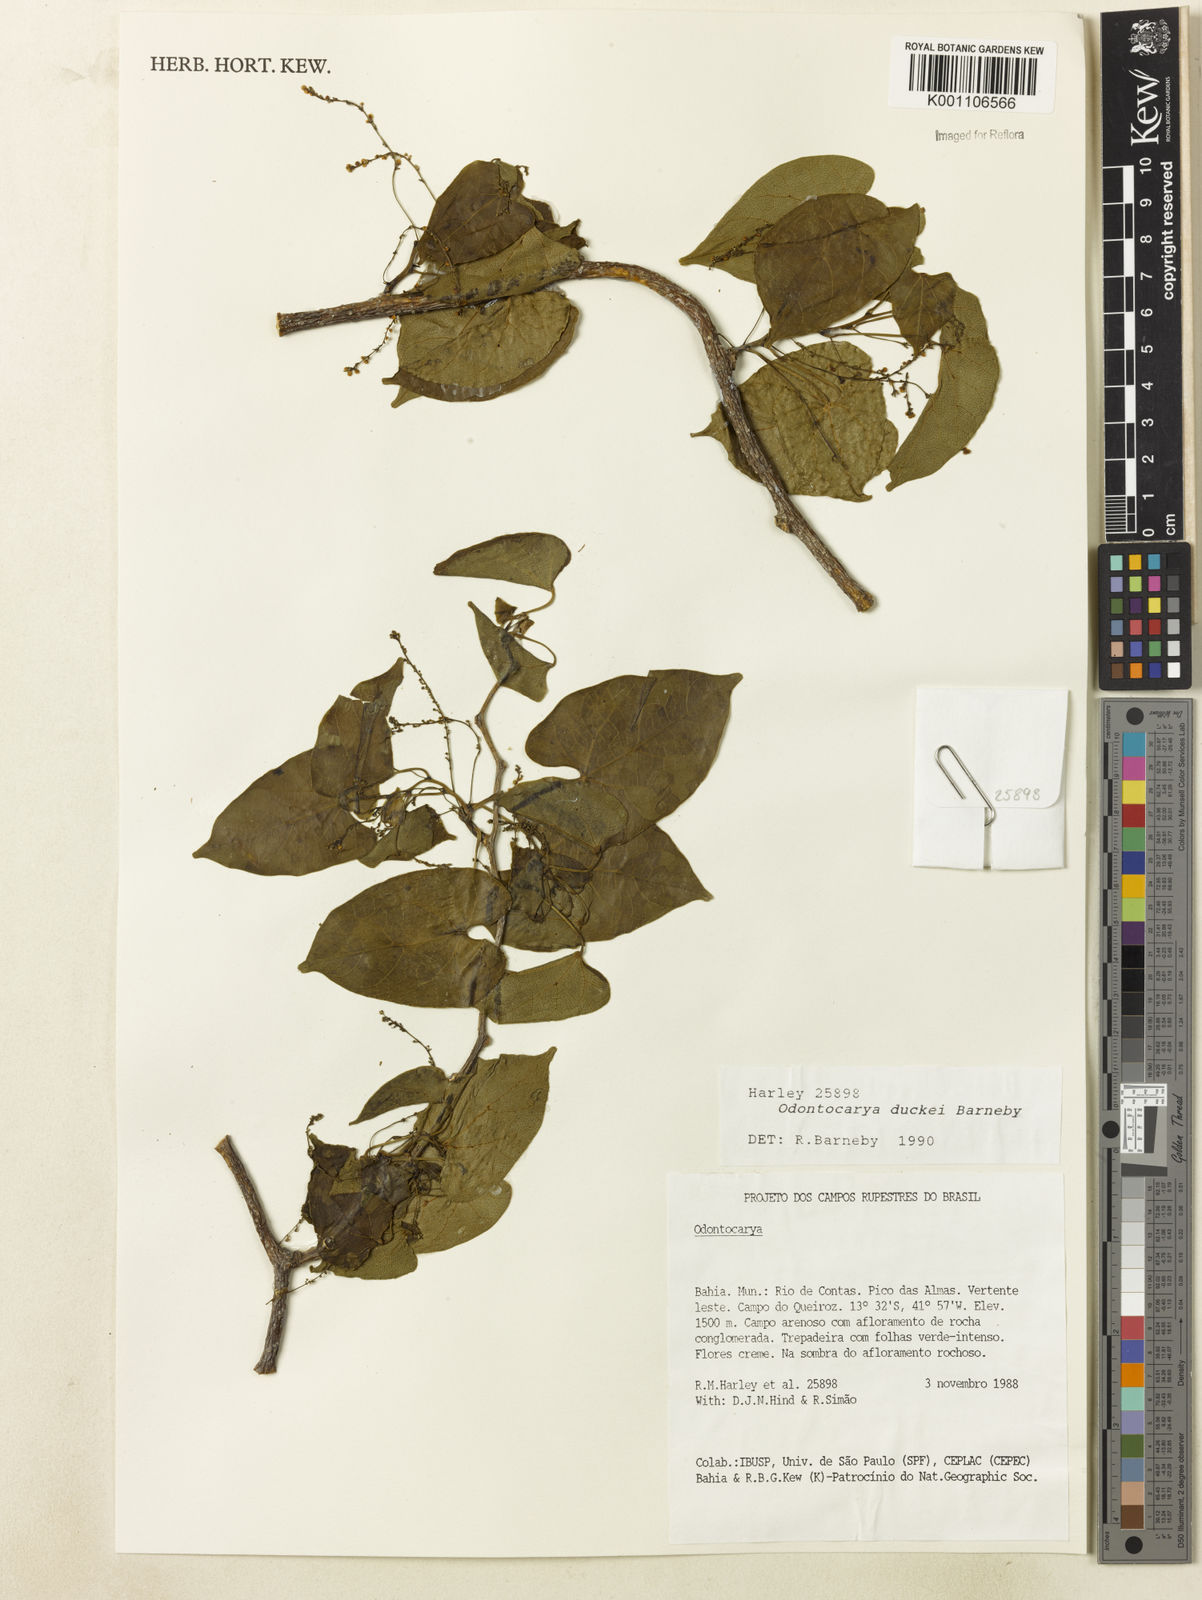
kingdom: Plantae
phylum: Tracheophyta
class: Magnoliopsida
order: Ranunculales
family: Menispermaceae
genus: Odontocarya
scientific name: Odontocarya duckei
